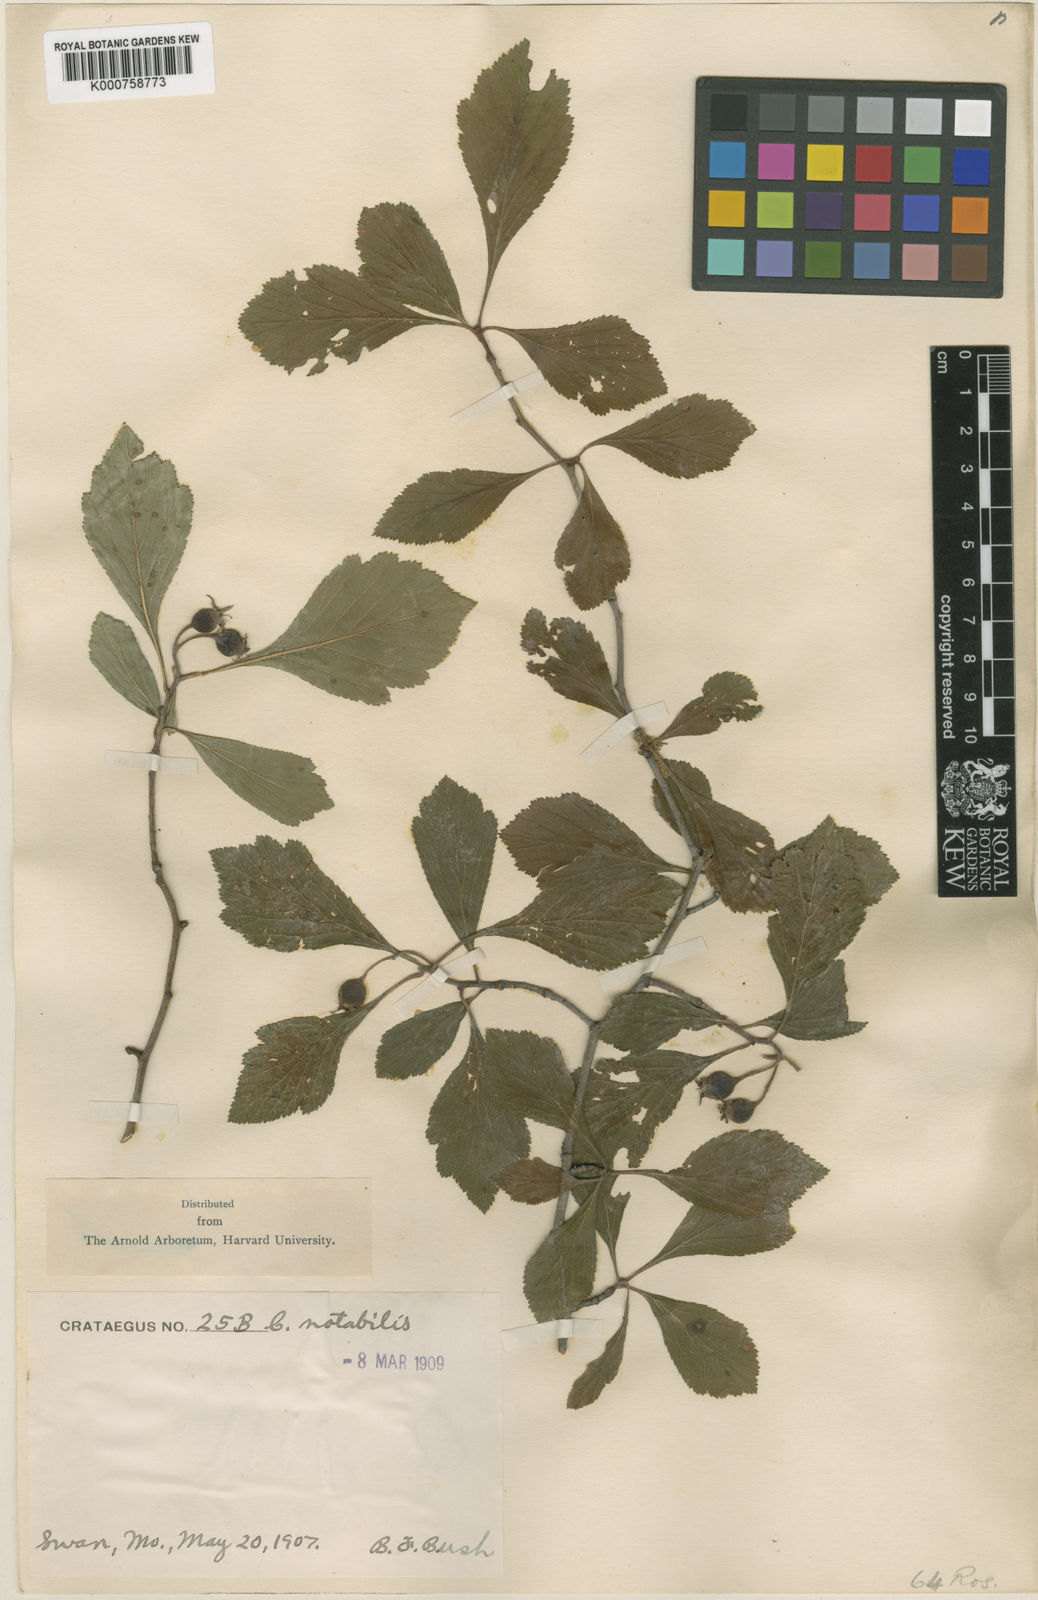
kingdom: Plantae
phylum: Tracheophyta
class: Magnoliopsida
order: Rosales
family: Rosaceae
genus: Crataegus
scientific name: Crataegus
